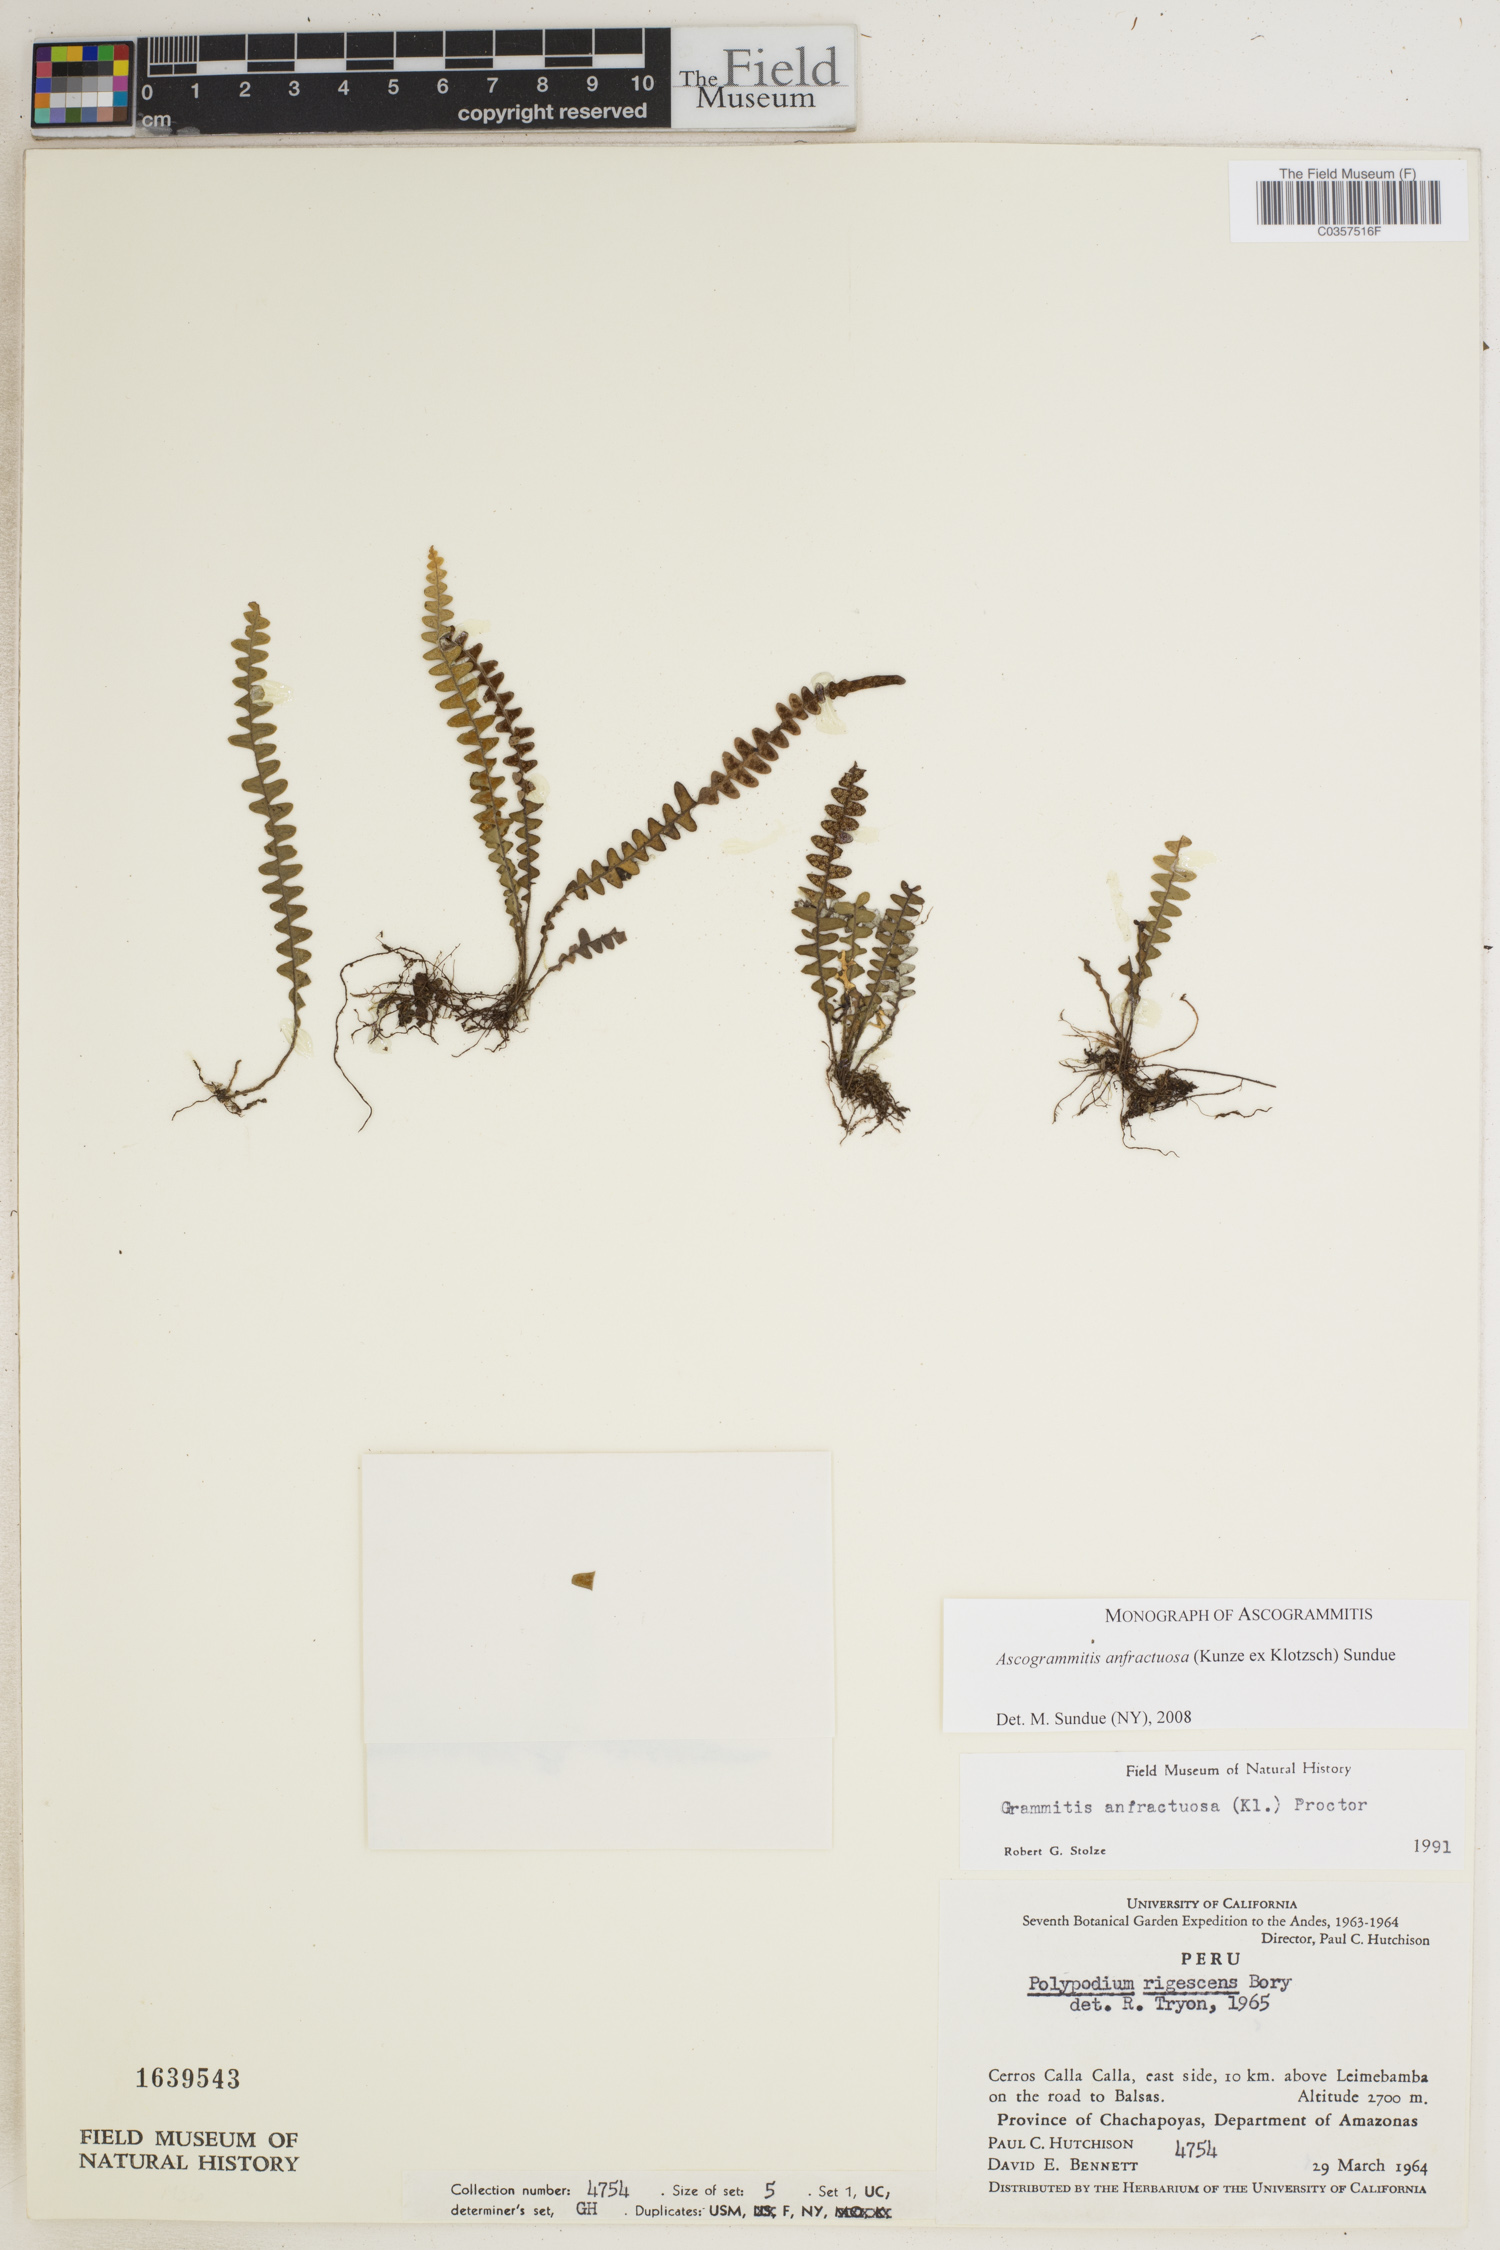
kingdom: Plantae
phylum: Tracheophyta
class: Polypodiopsida
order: Polypodiales
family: Polypodiaceae
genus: Ascogrammitis
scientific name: Ascogrammitis anfractuosa
